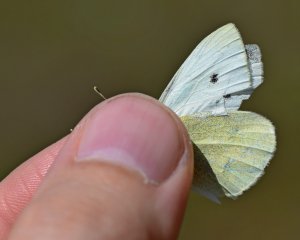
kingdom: Animalia
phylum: Arthropoda
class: Insecta
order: Lepidoptera
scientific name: Lepidoptera
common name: Butterflies
